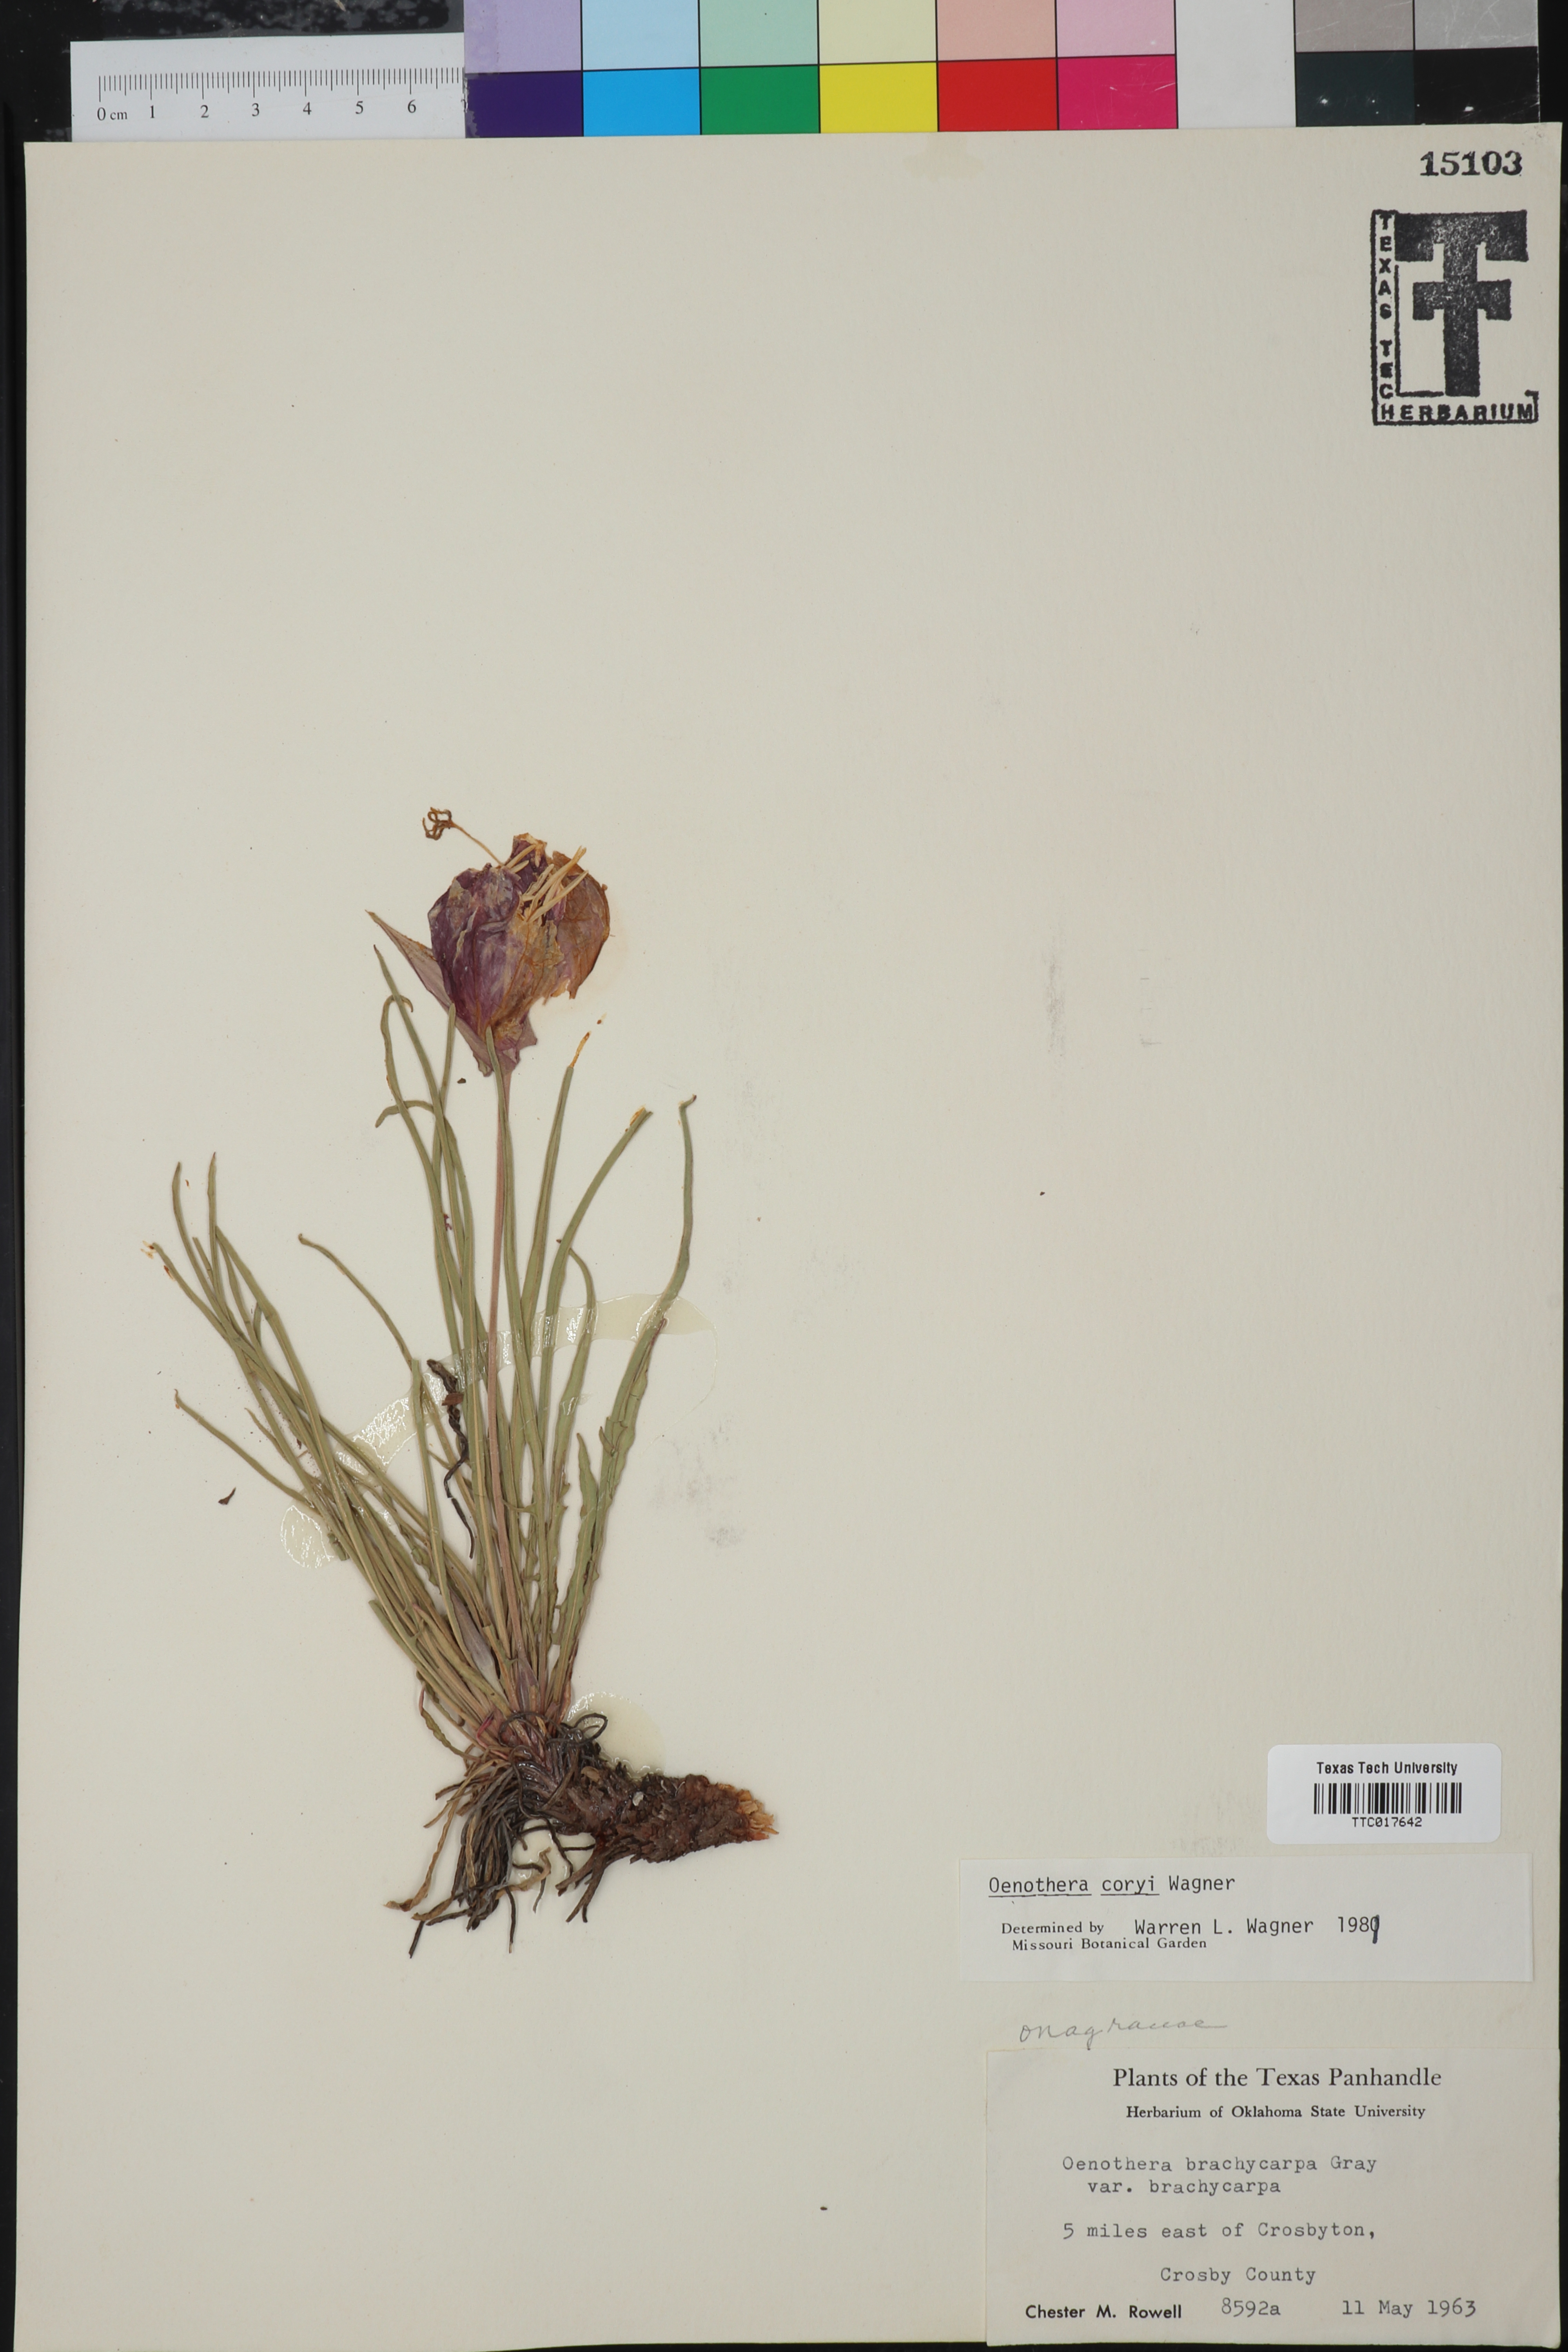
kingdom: Plantae
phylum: Tracheophyta
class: Magnoliopsida
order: Myrtales
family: Onagraceae
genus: Oenothera
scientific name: Oenothera coryi
